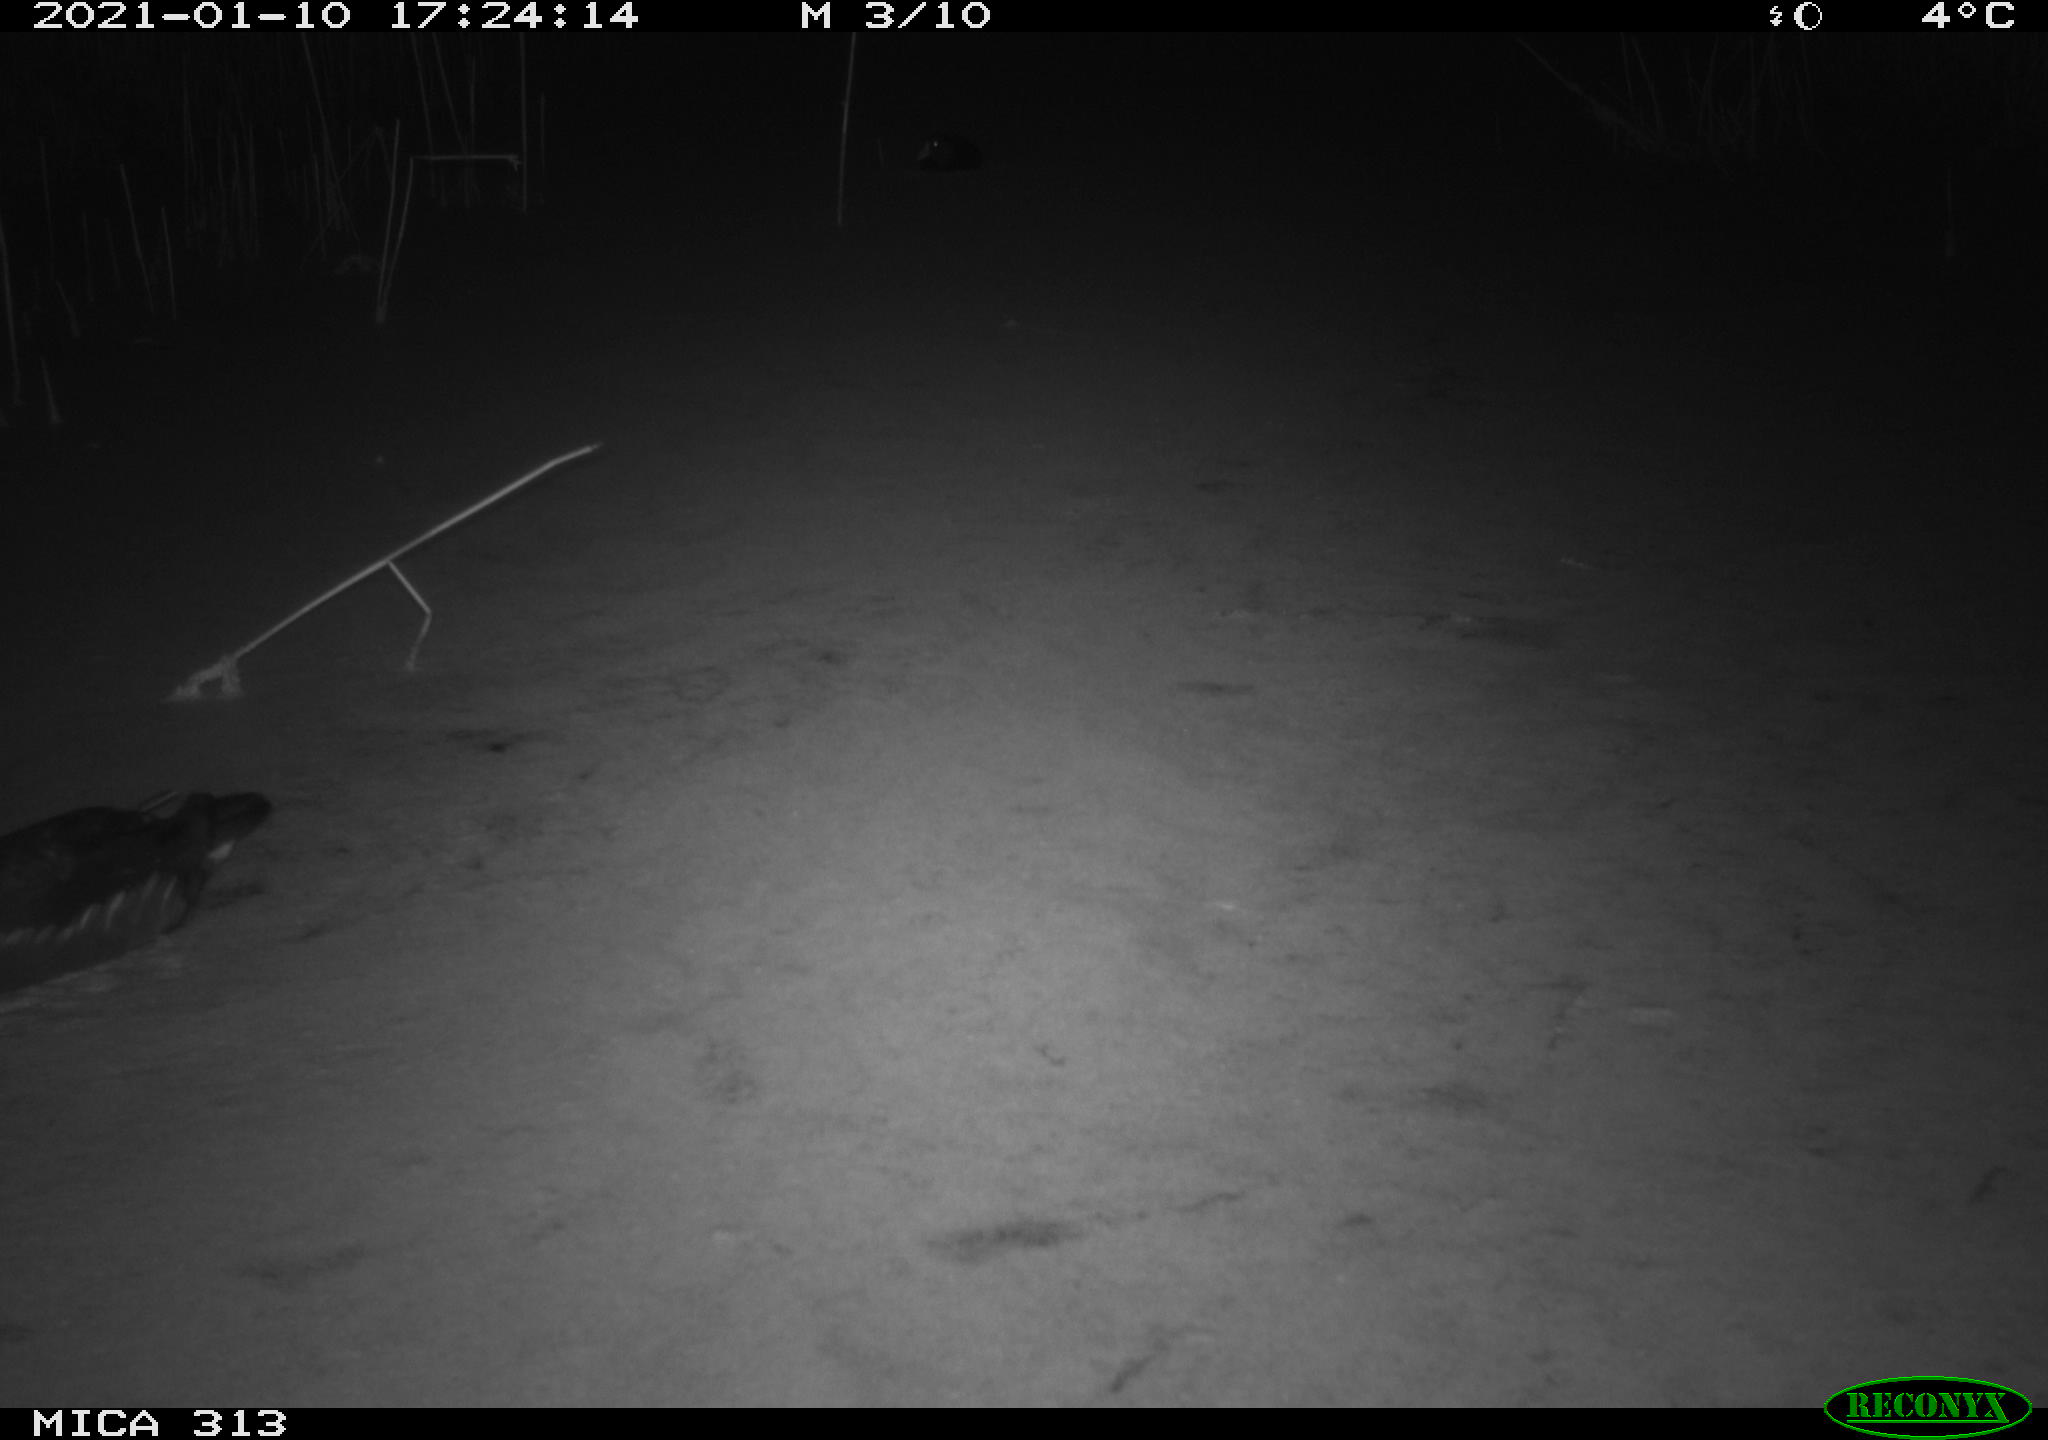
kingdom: Animalia
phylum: Chordata
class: Aves
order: Gruiformes
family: Rallidae
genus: Gallinula
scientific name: Gallinula chloropus
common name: Common moorhen
